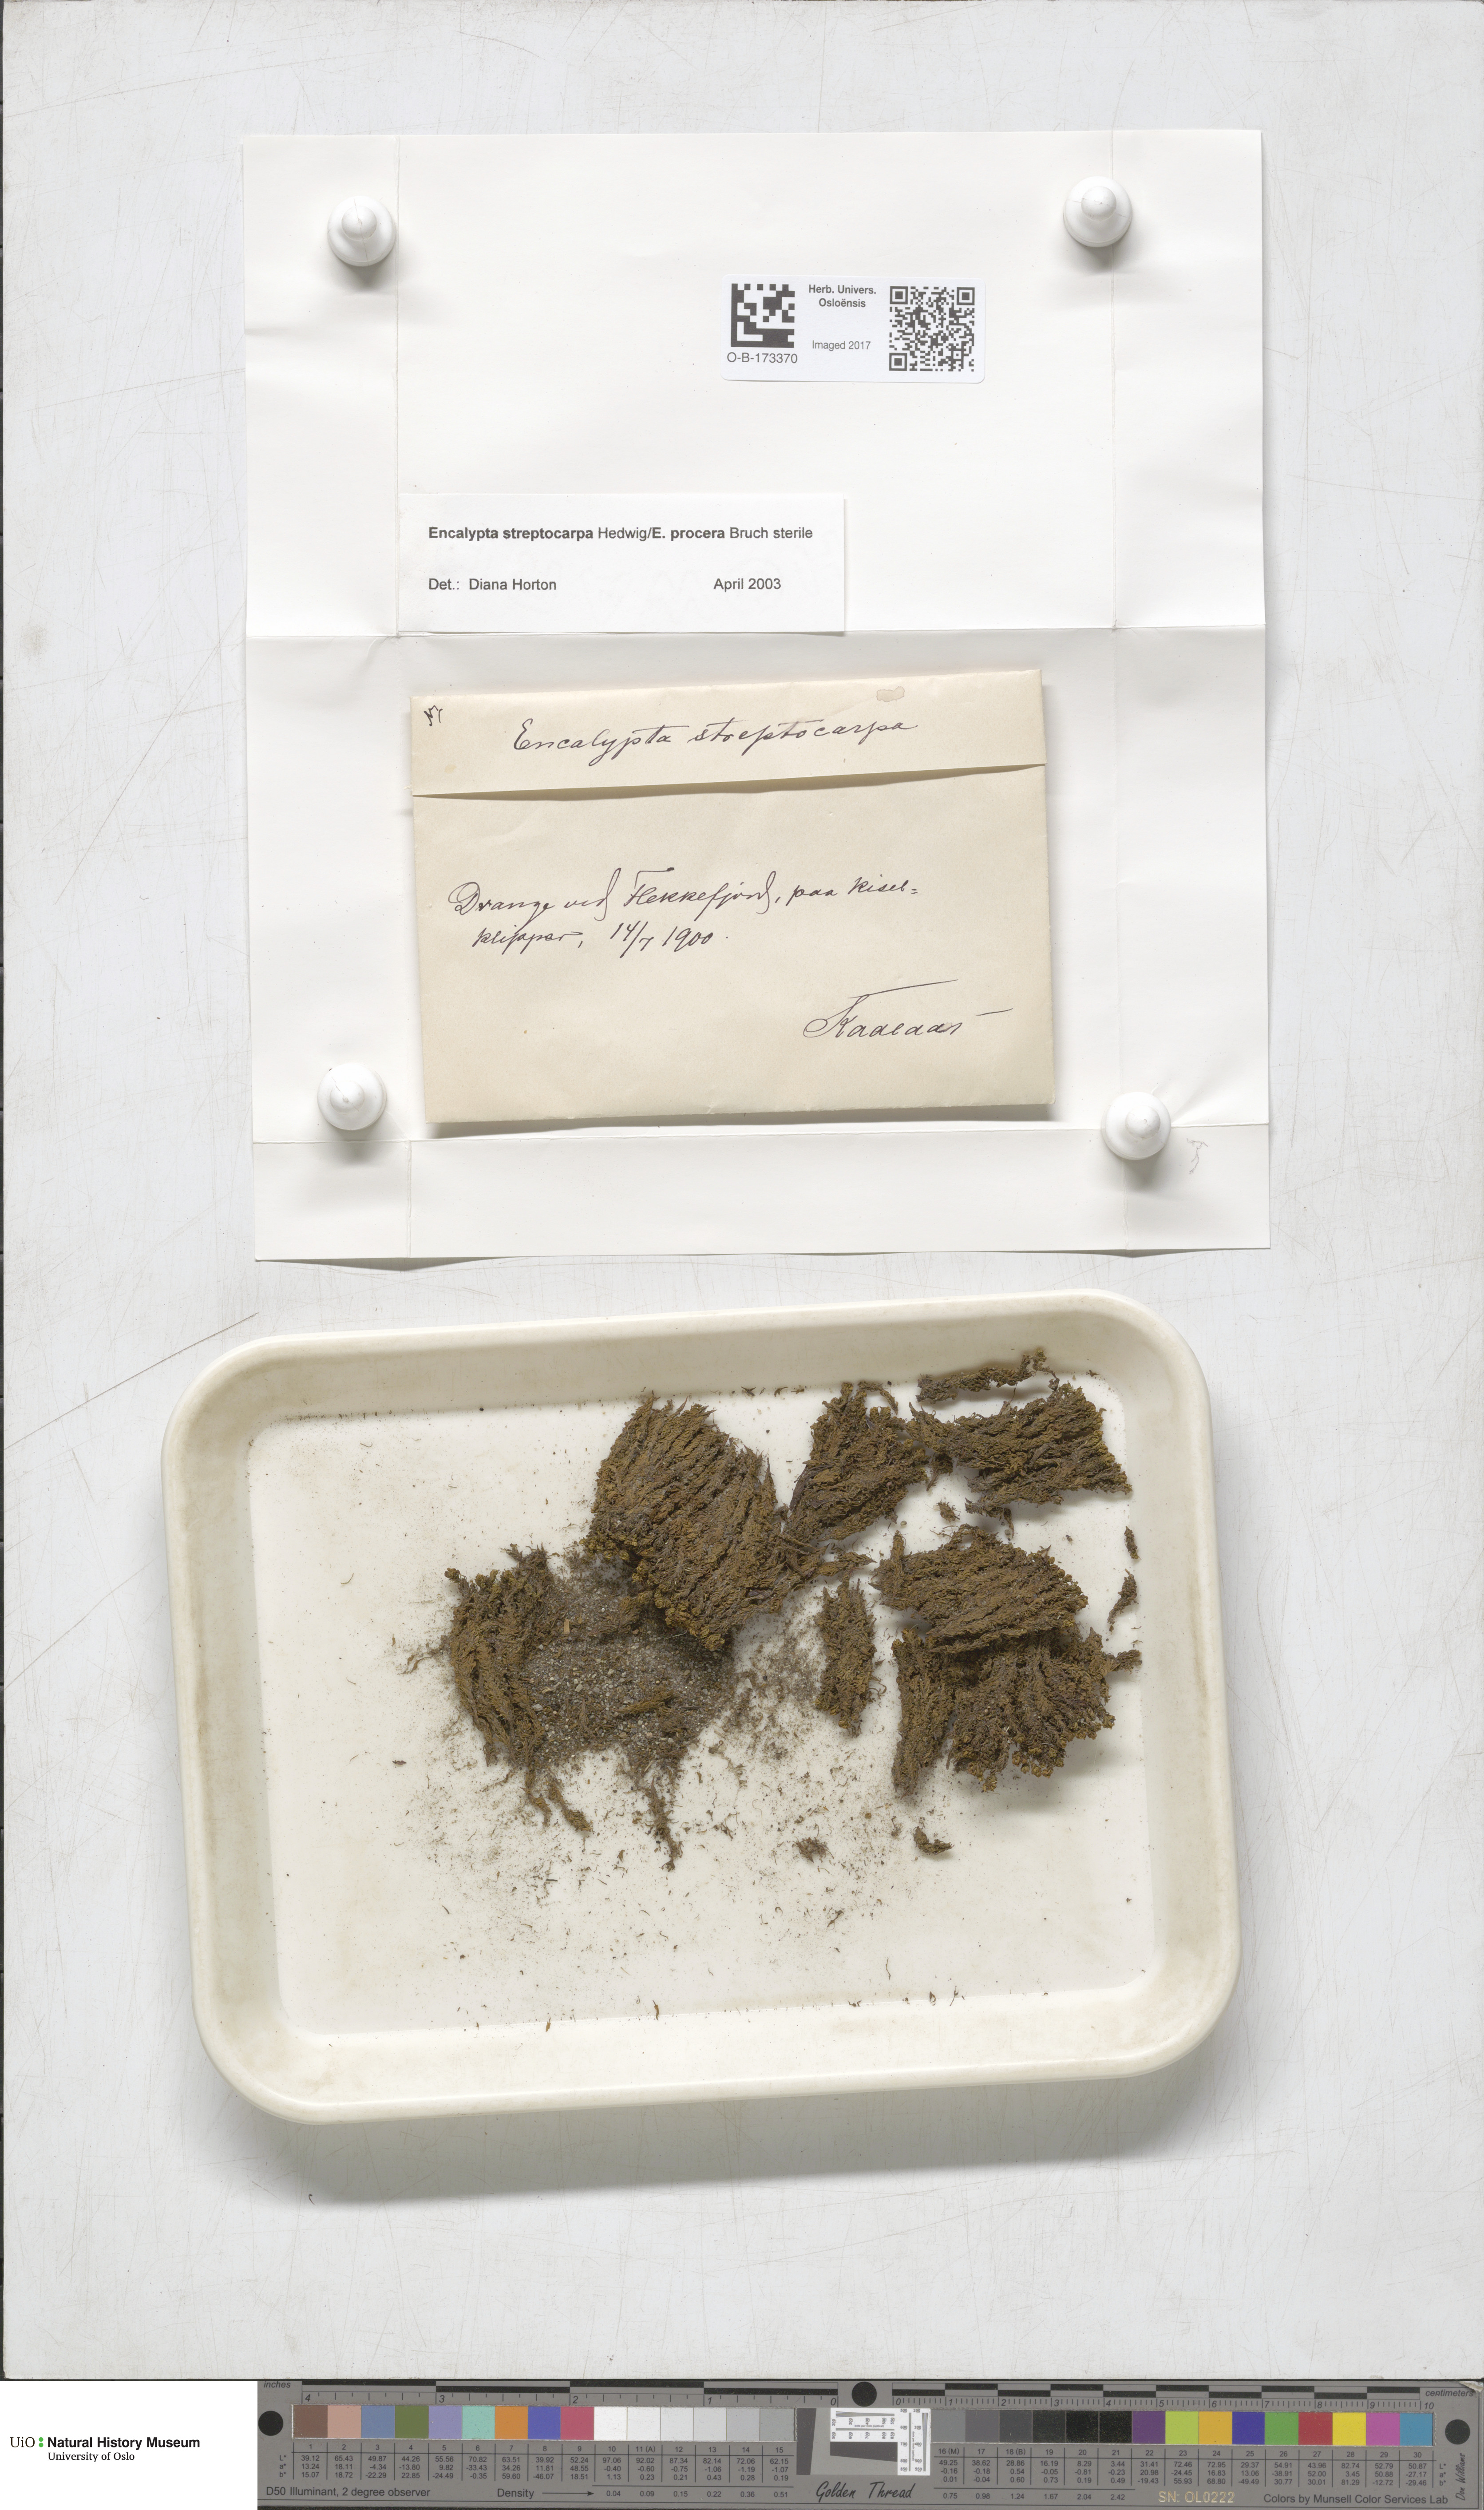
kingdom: Plantae
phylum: Bryophyta
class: Bryopsida
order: Encalyptales
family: Encalyptaceae
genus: Encalypta
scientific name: Encalypta
